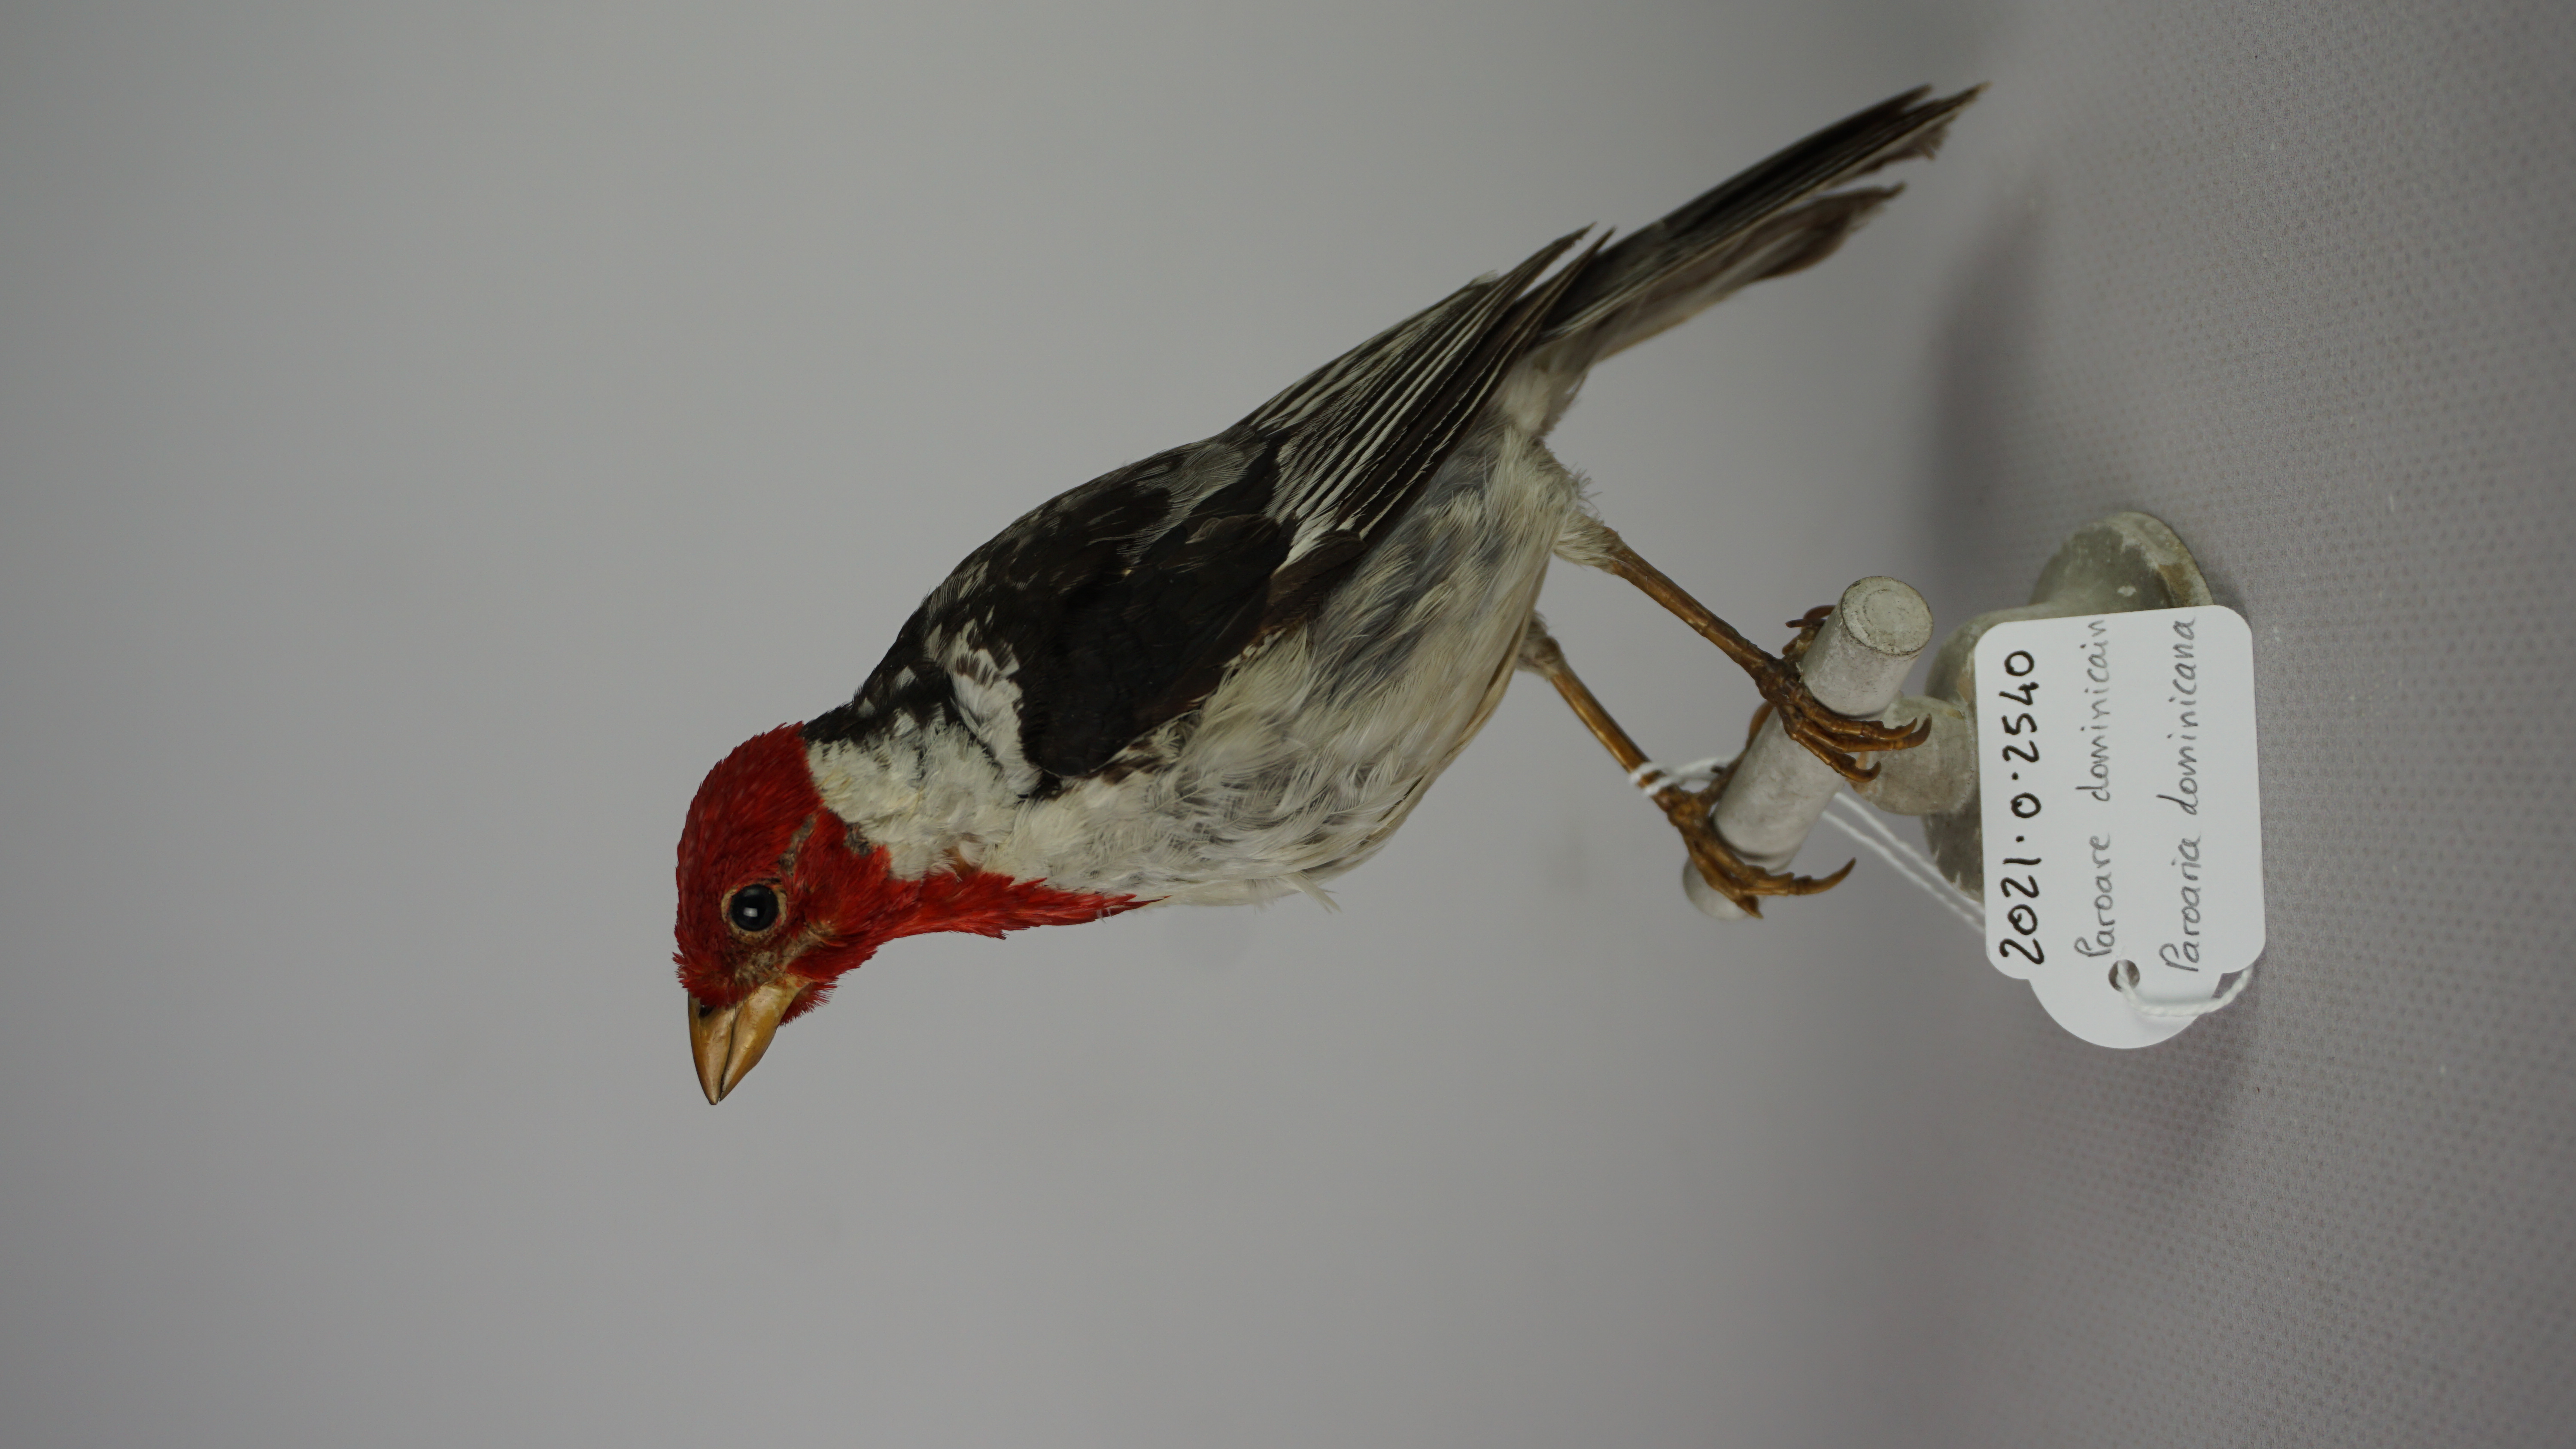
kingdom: Animalia
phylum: Chordata
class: Aves
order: Passeriformes
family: Thraupidae
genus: Paroaria
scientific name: Paroaria dominicana
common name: Red-cowled cardinal
